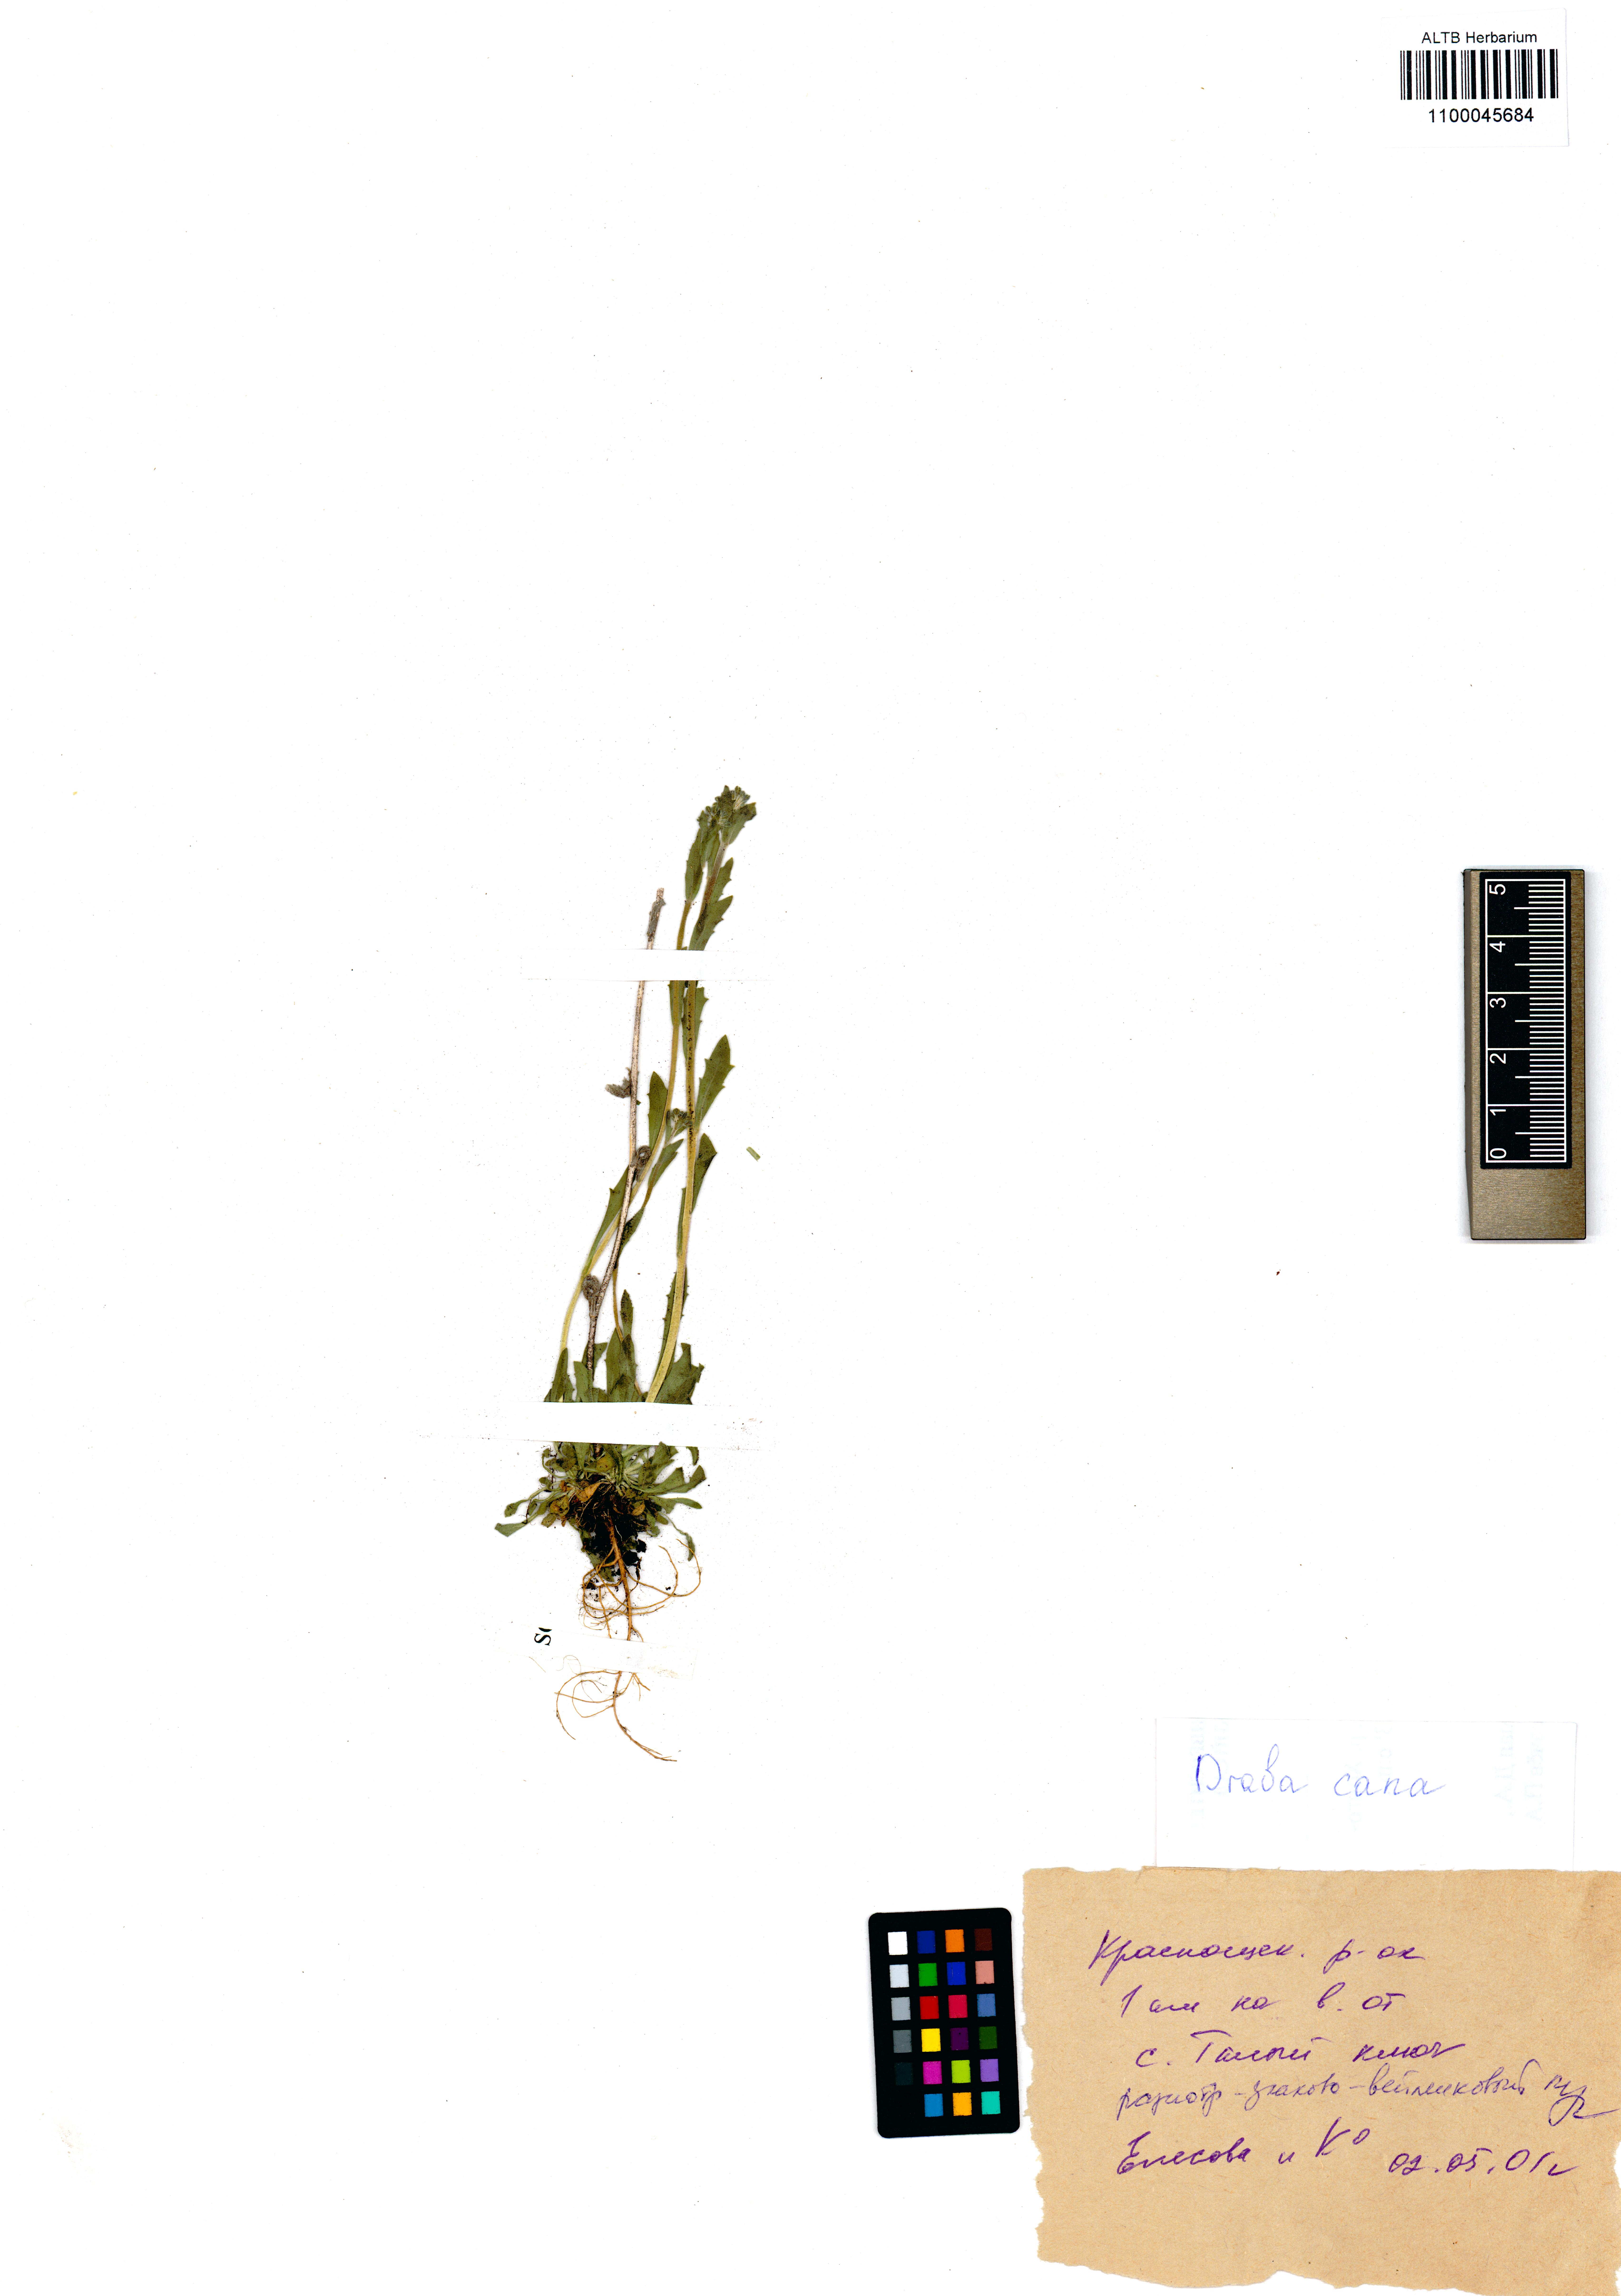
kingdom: Plantae
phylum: Tracheophyta
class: Magnoliopsida
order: Brassicales
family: Brassicaceae
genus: Draba
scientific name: Draba cana
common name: Hoary draba
